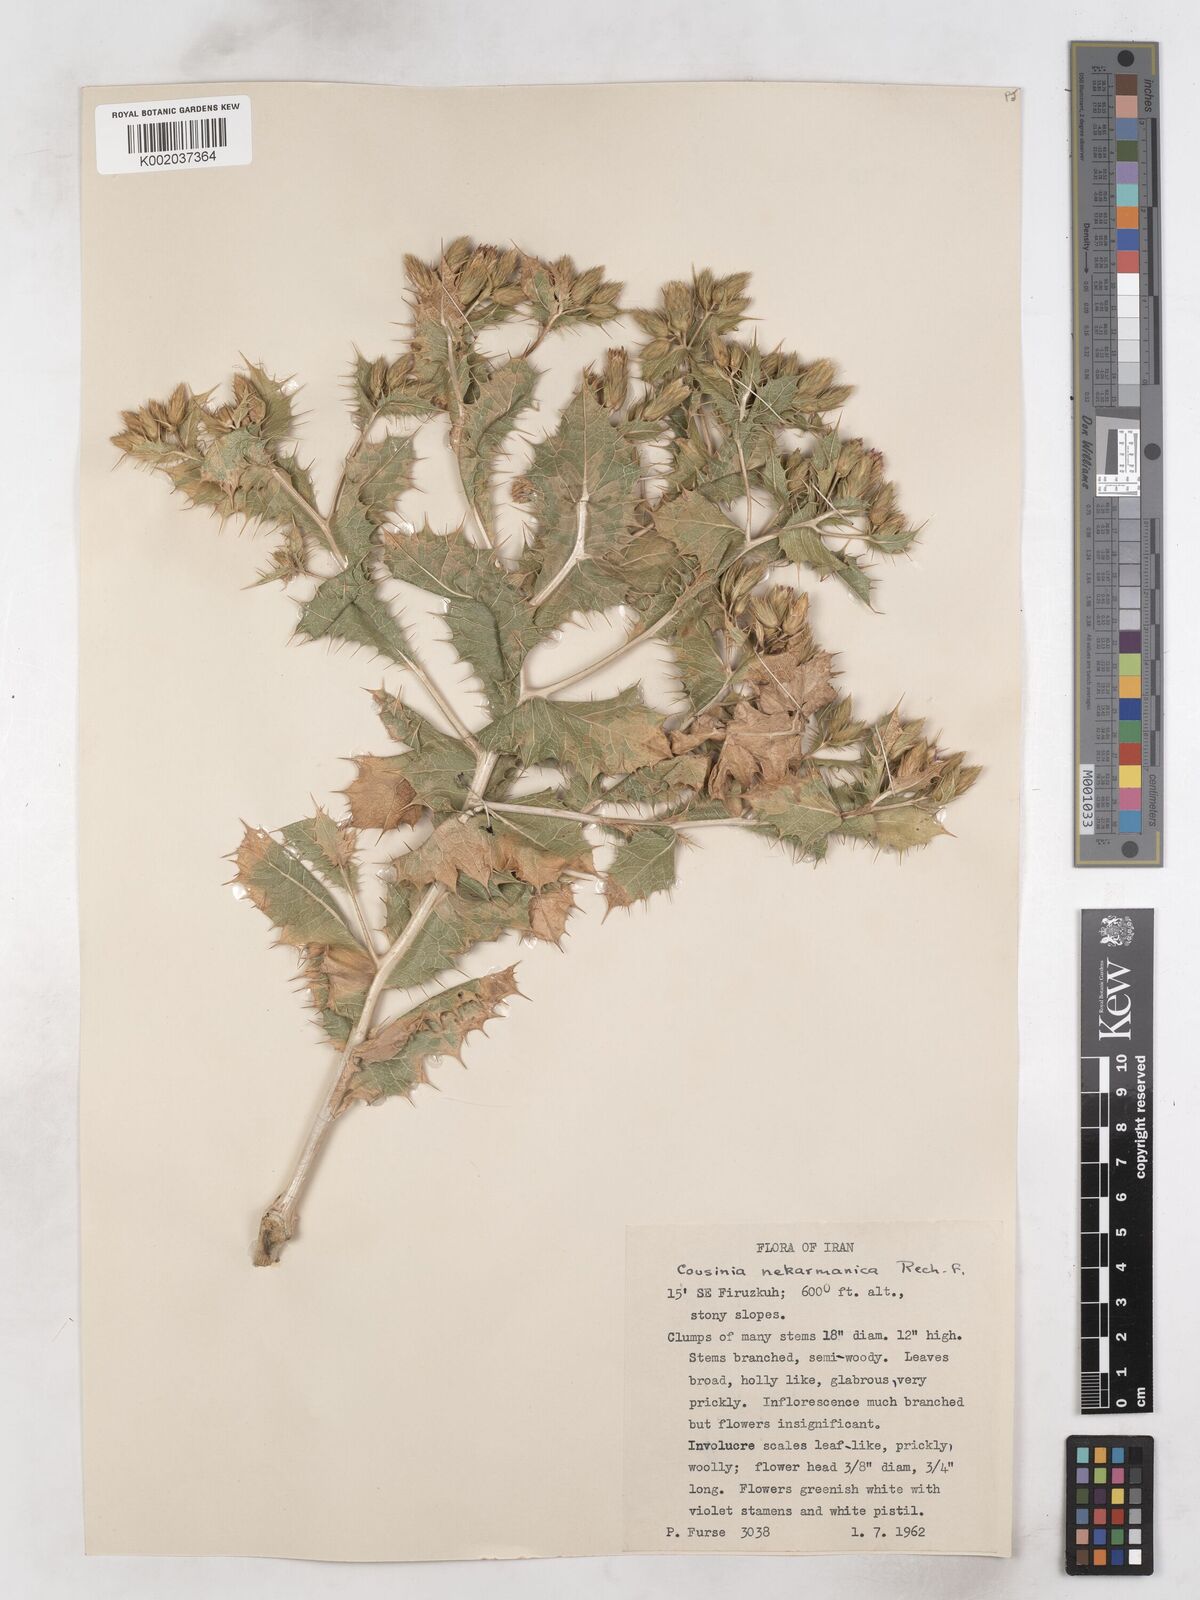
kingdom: Plantae
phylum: Tracheophyta
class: Magnoliopsida
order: Asterales
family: Asteraceae
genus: Cousinia
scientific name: Cousinia alexeenkoana
